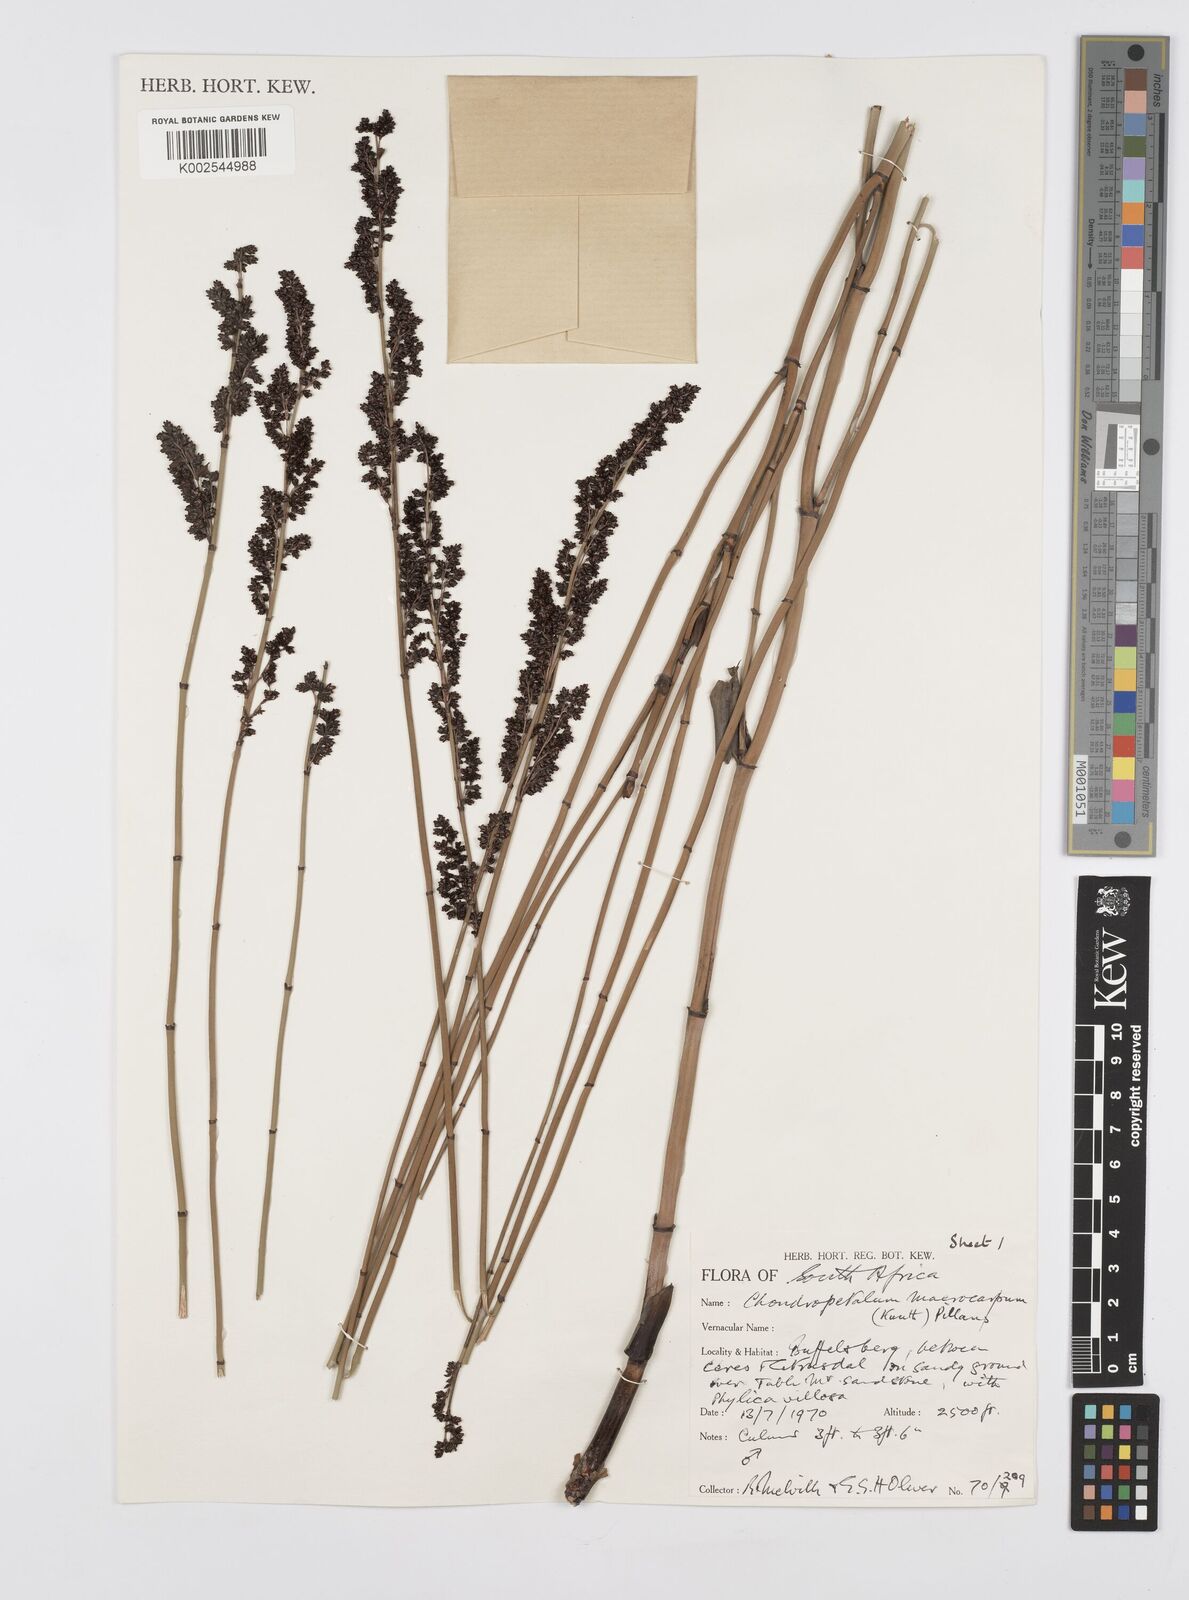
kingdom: Plantae
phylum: Tracheophyta
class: Liliopsida
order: Poales
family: Restionaceae
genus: Elegia
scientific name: Elegia macrocarpa
